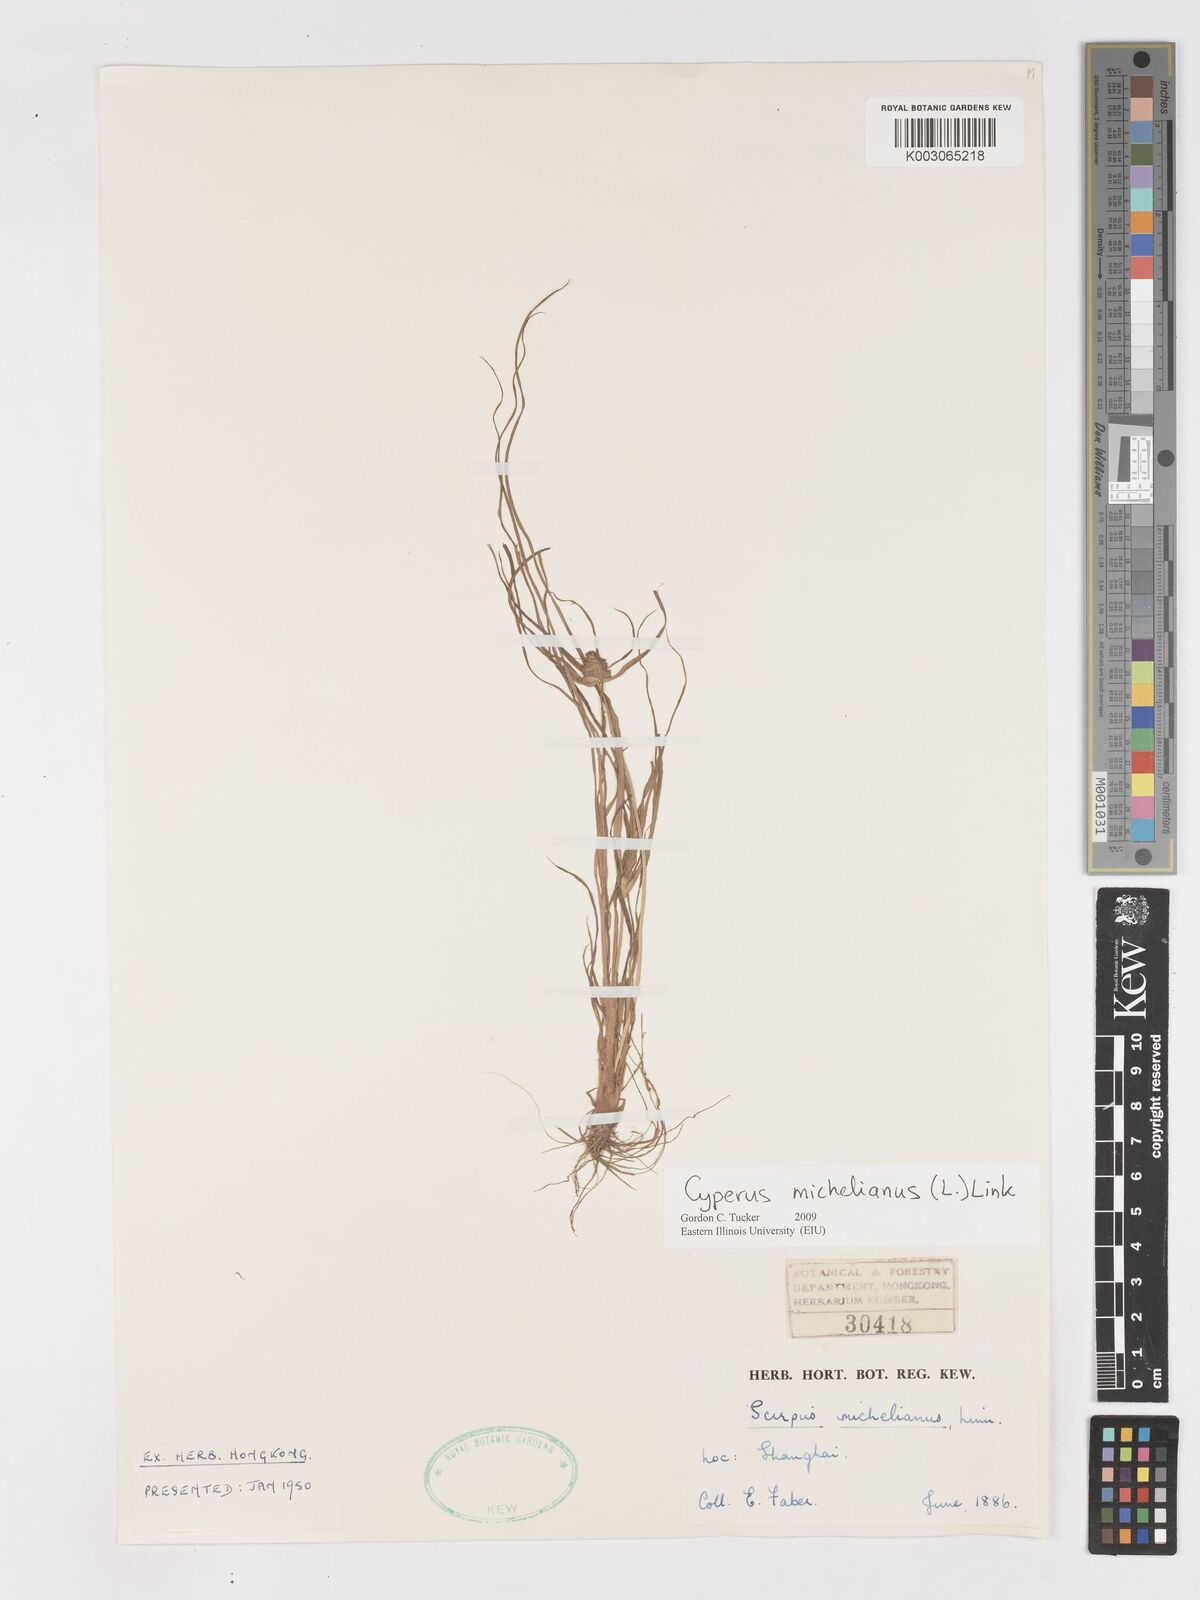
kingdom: Plantae
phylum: Tracheophyta
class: Liliopsida
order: Poales
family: Cyperaceae
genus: Cyperus
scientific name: Cyperus michelianus
